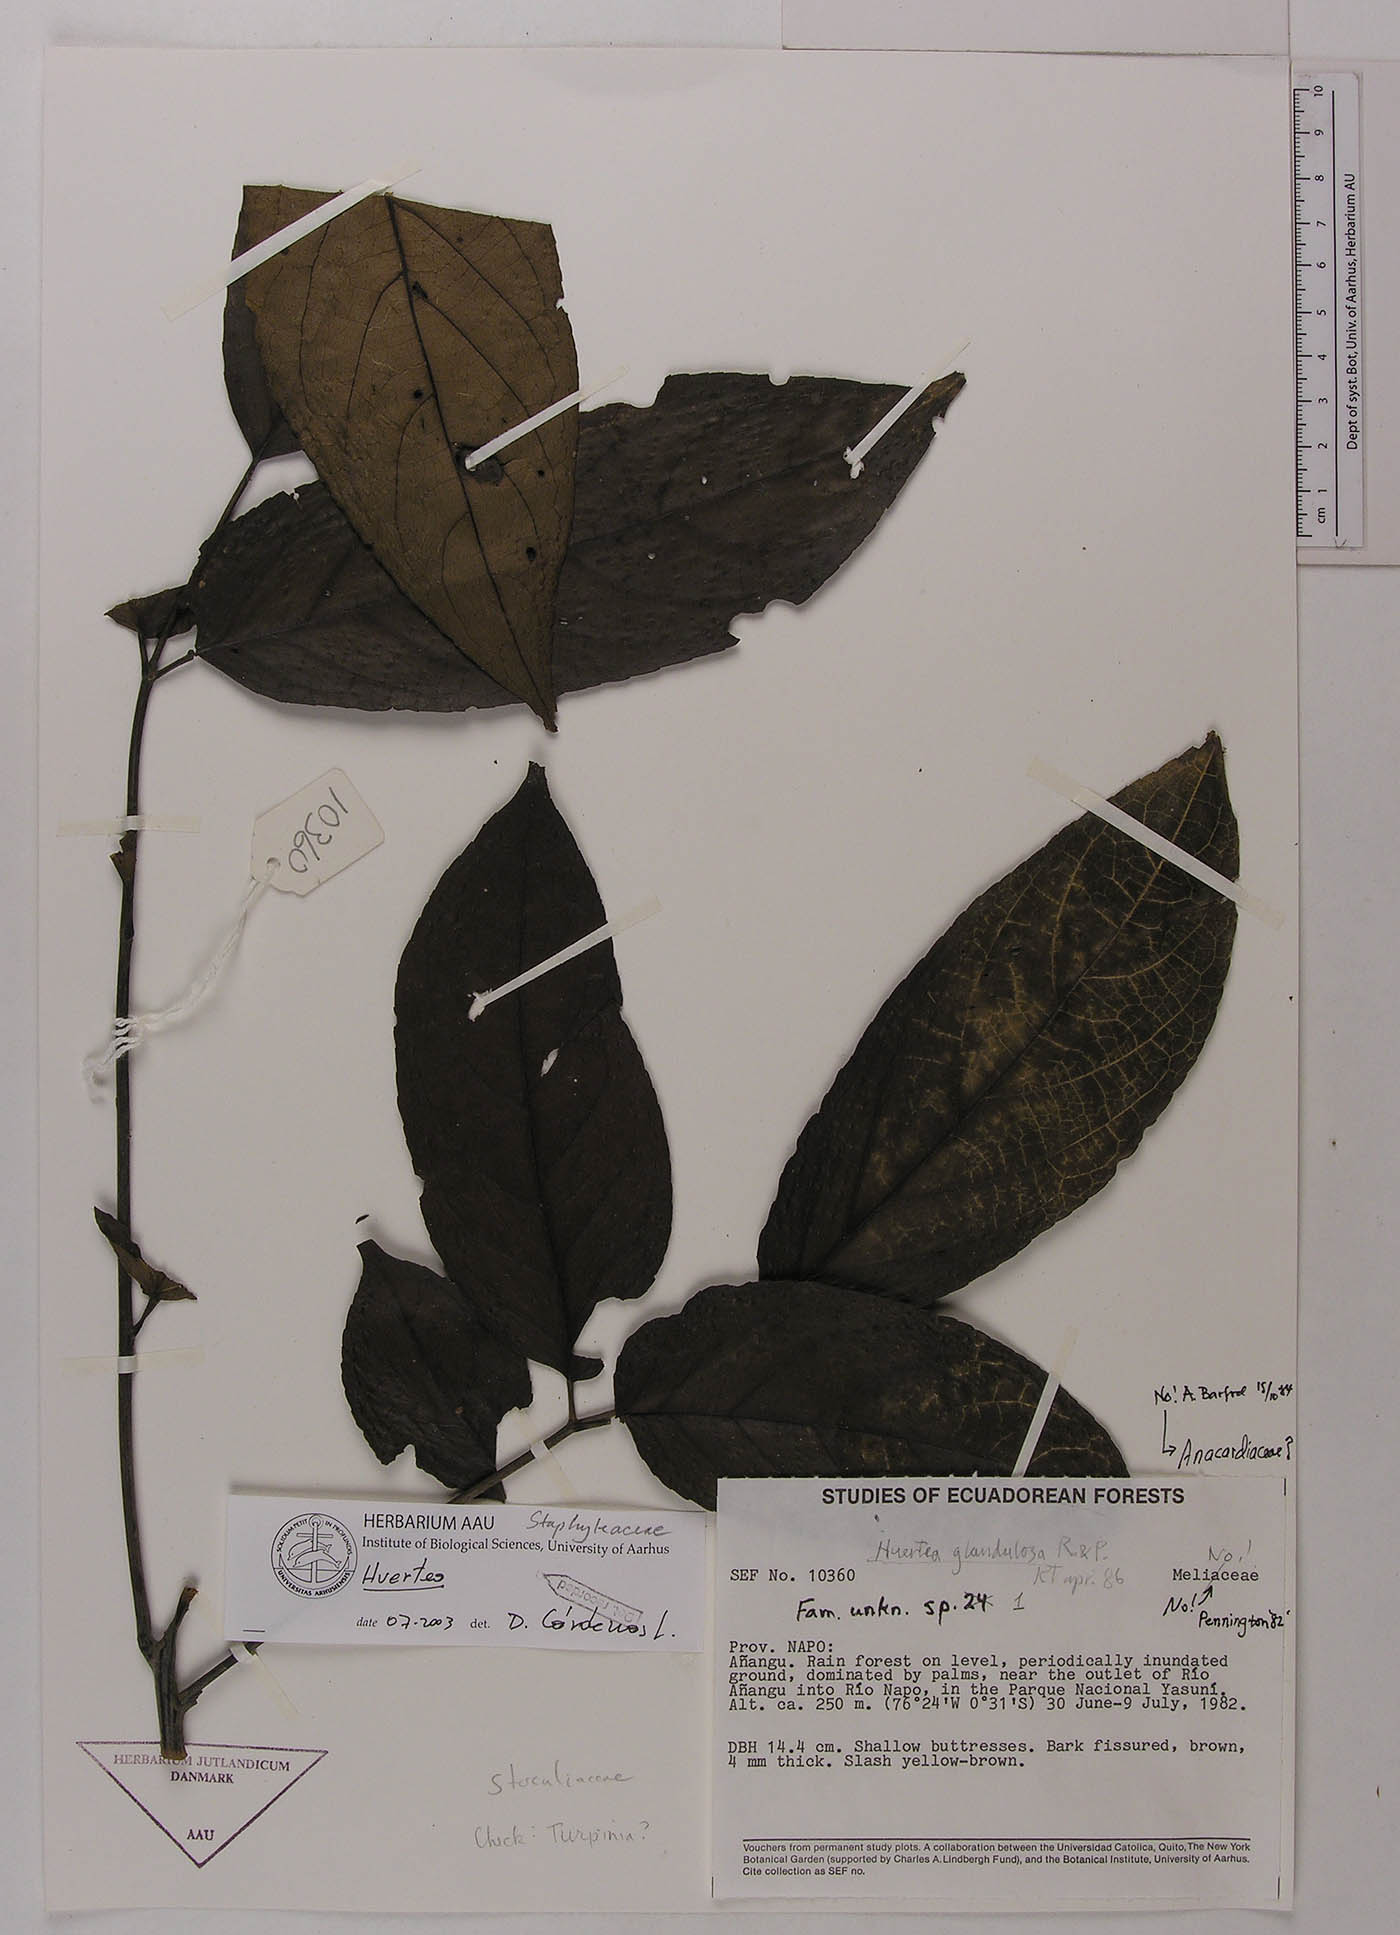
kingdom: Plantae
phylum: Tracheophyta
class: Magnoliopsida
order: Huerteales
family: Tapisciaceae
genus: Huertea
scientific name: Huertea glandulosa
